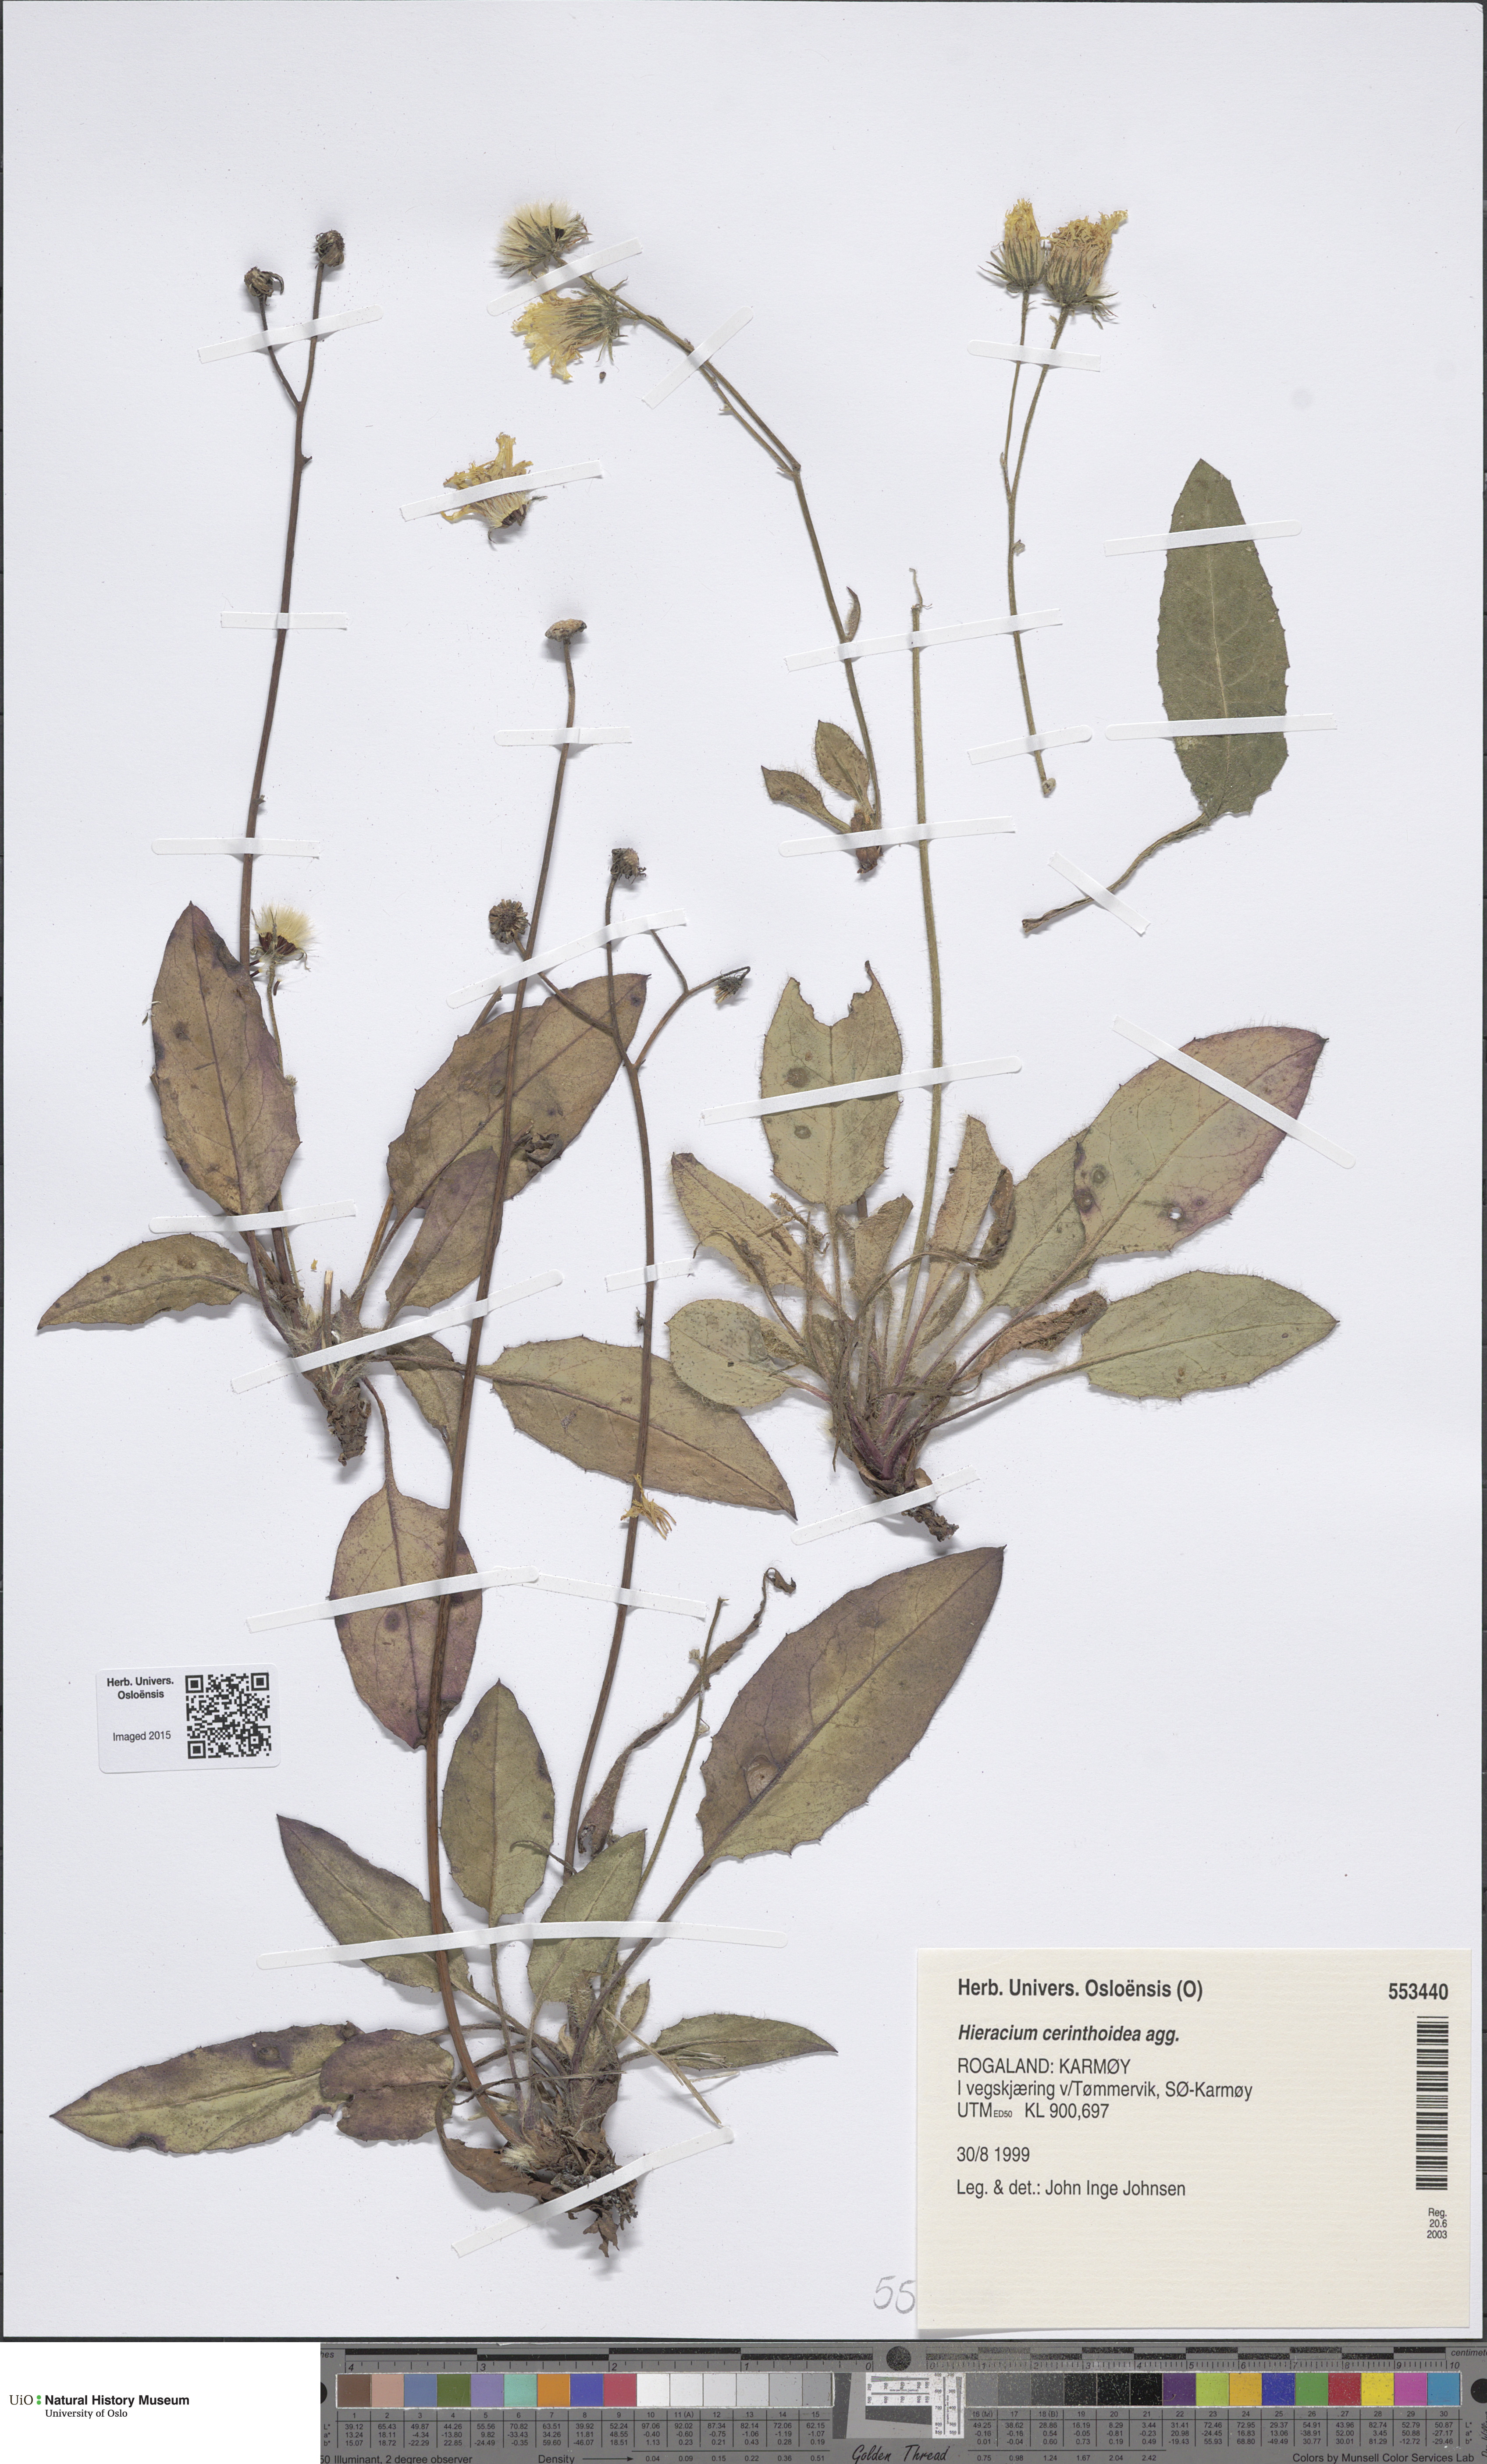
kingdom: Plantae
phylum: Tracheophyta
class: Magnoliopsida
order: Asterales
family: Asteraceae
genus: Hieracium
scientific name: Hieracium cerinthoides
